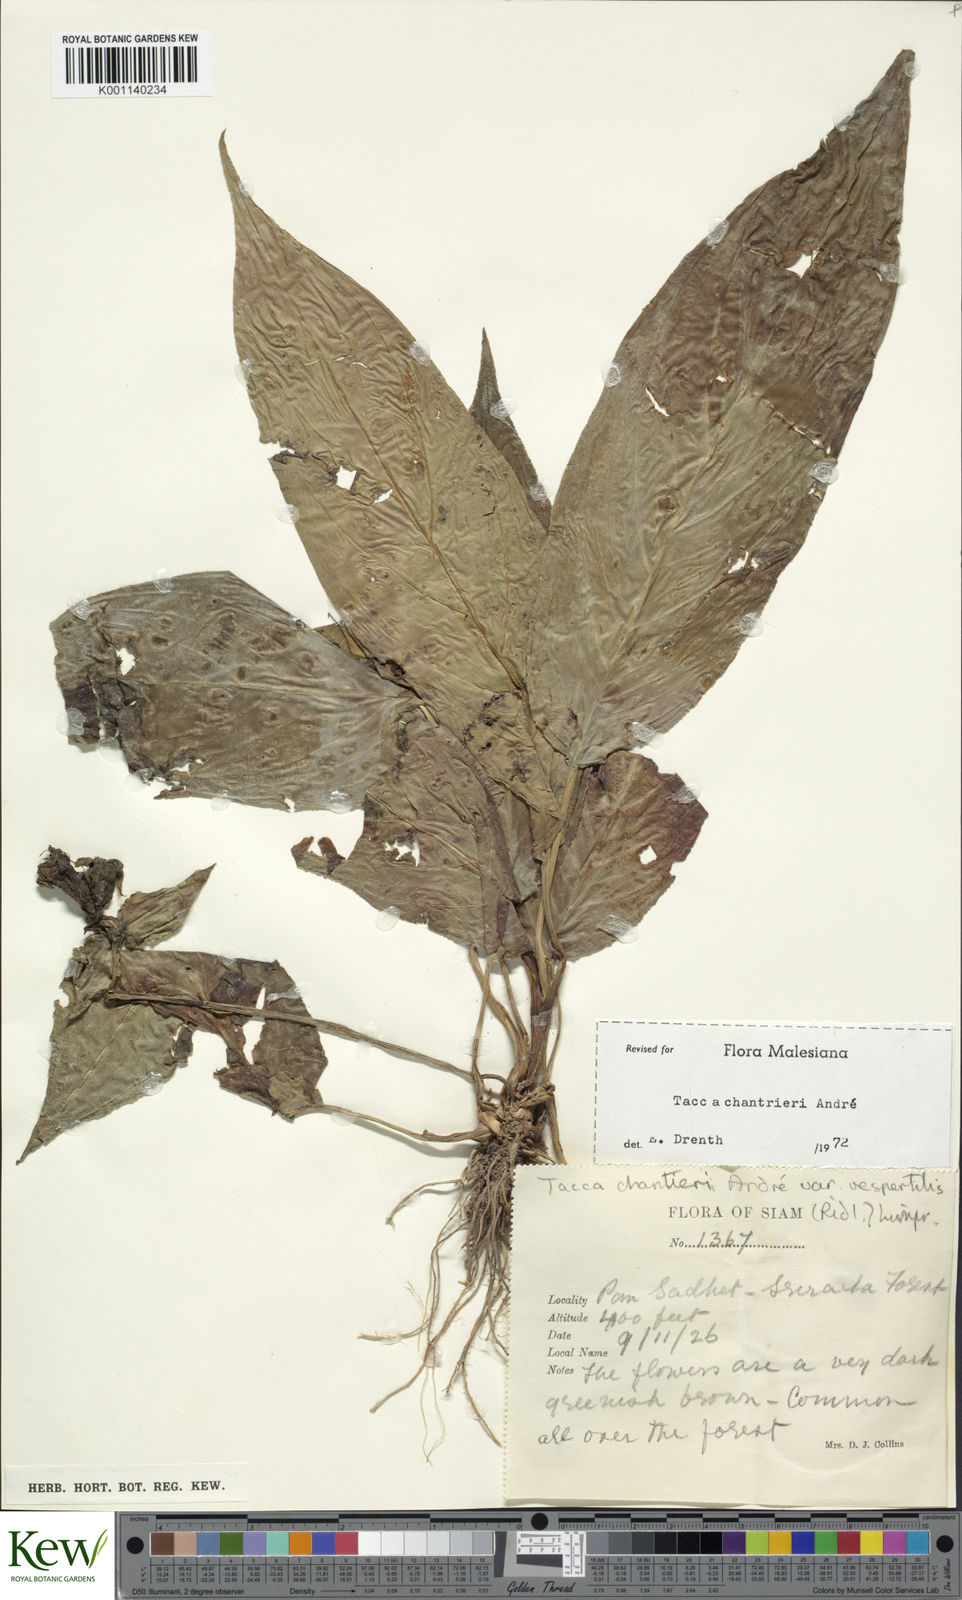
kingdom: Plantae
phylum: Tracheophyta
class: Liliopsida
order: Dioscoreales
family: Dioscoreaceae
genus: Tacca
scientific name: Tacca
